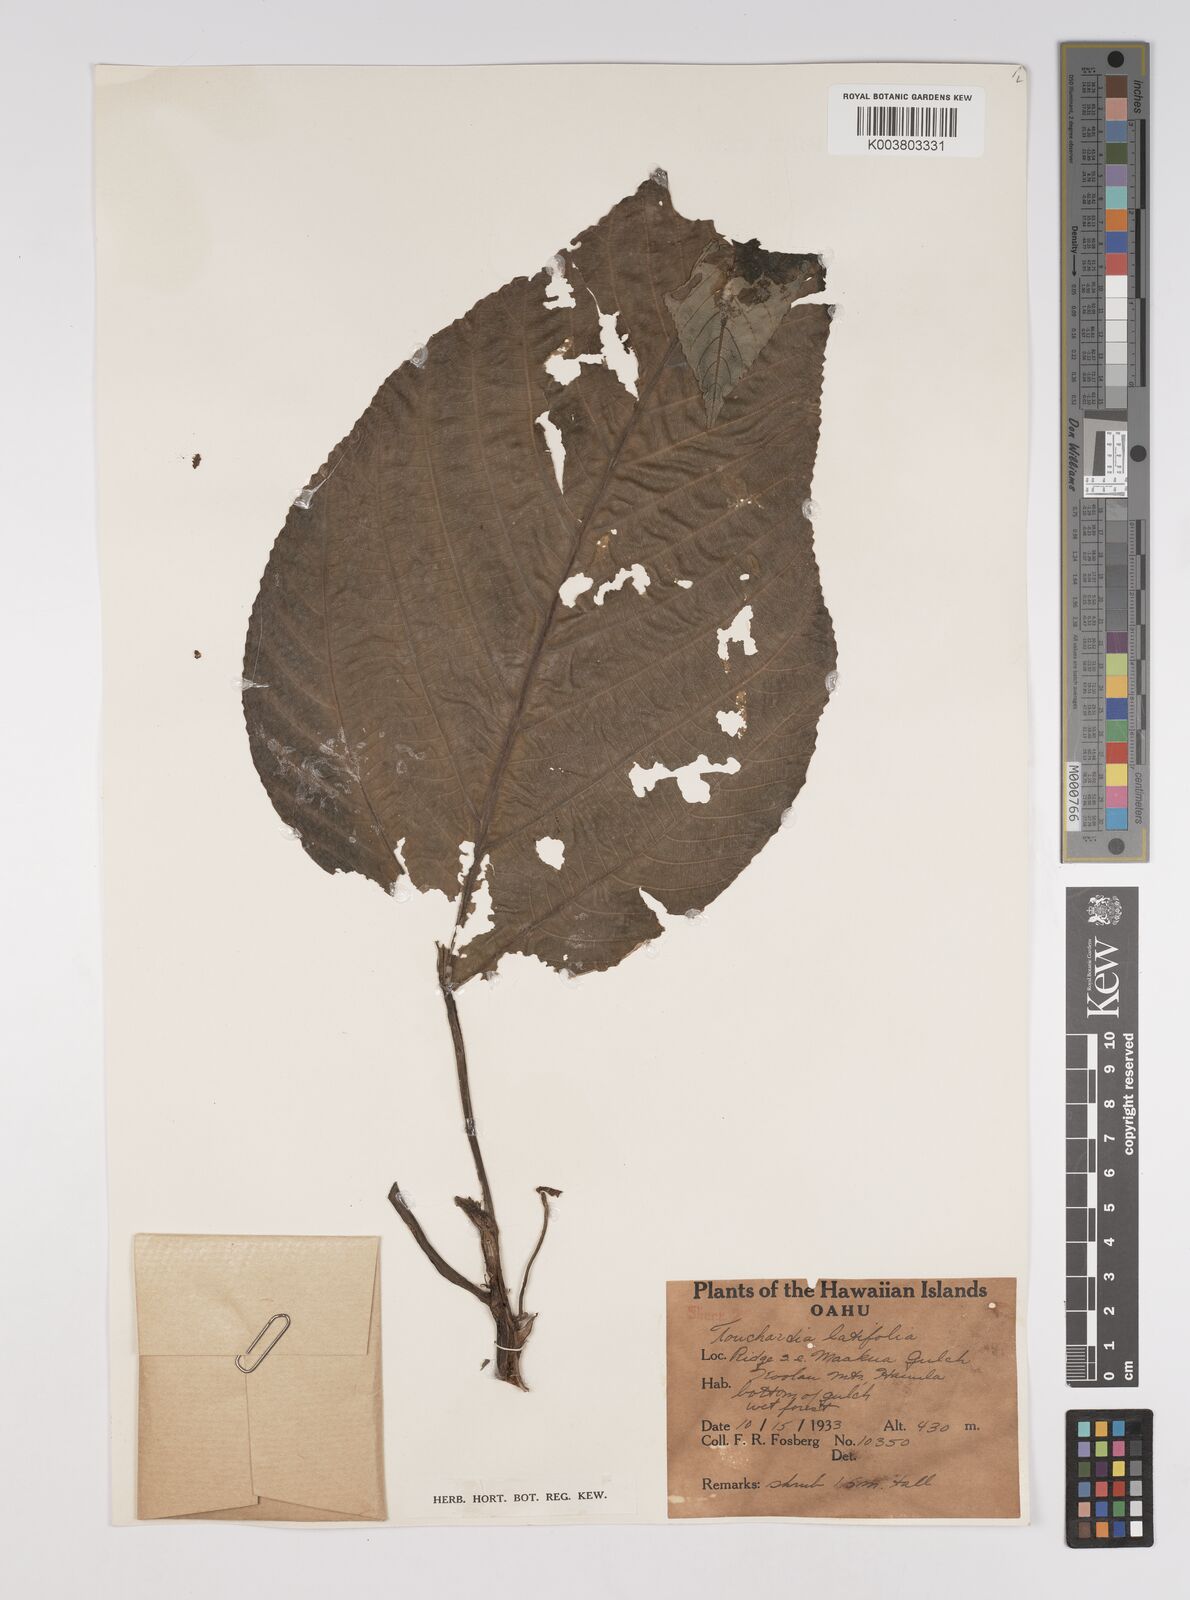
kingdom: Plantae
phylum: Tracheophyta
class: Magnoliopsida
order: Rosales
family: Urticaceae
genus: Touchardia
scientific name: Touchardia latifolia
